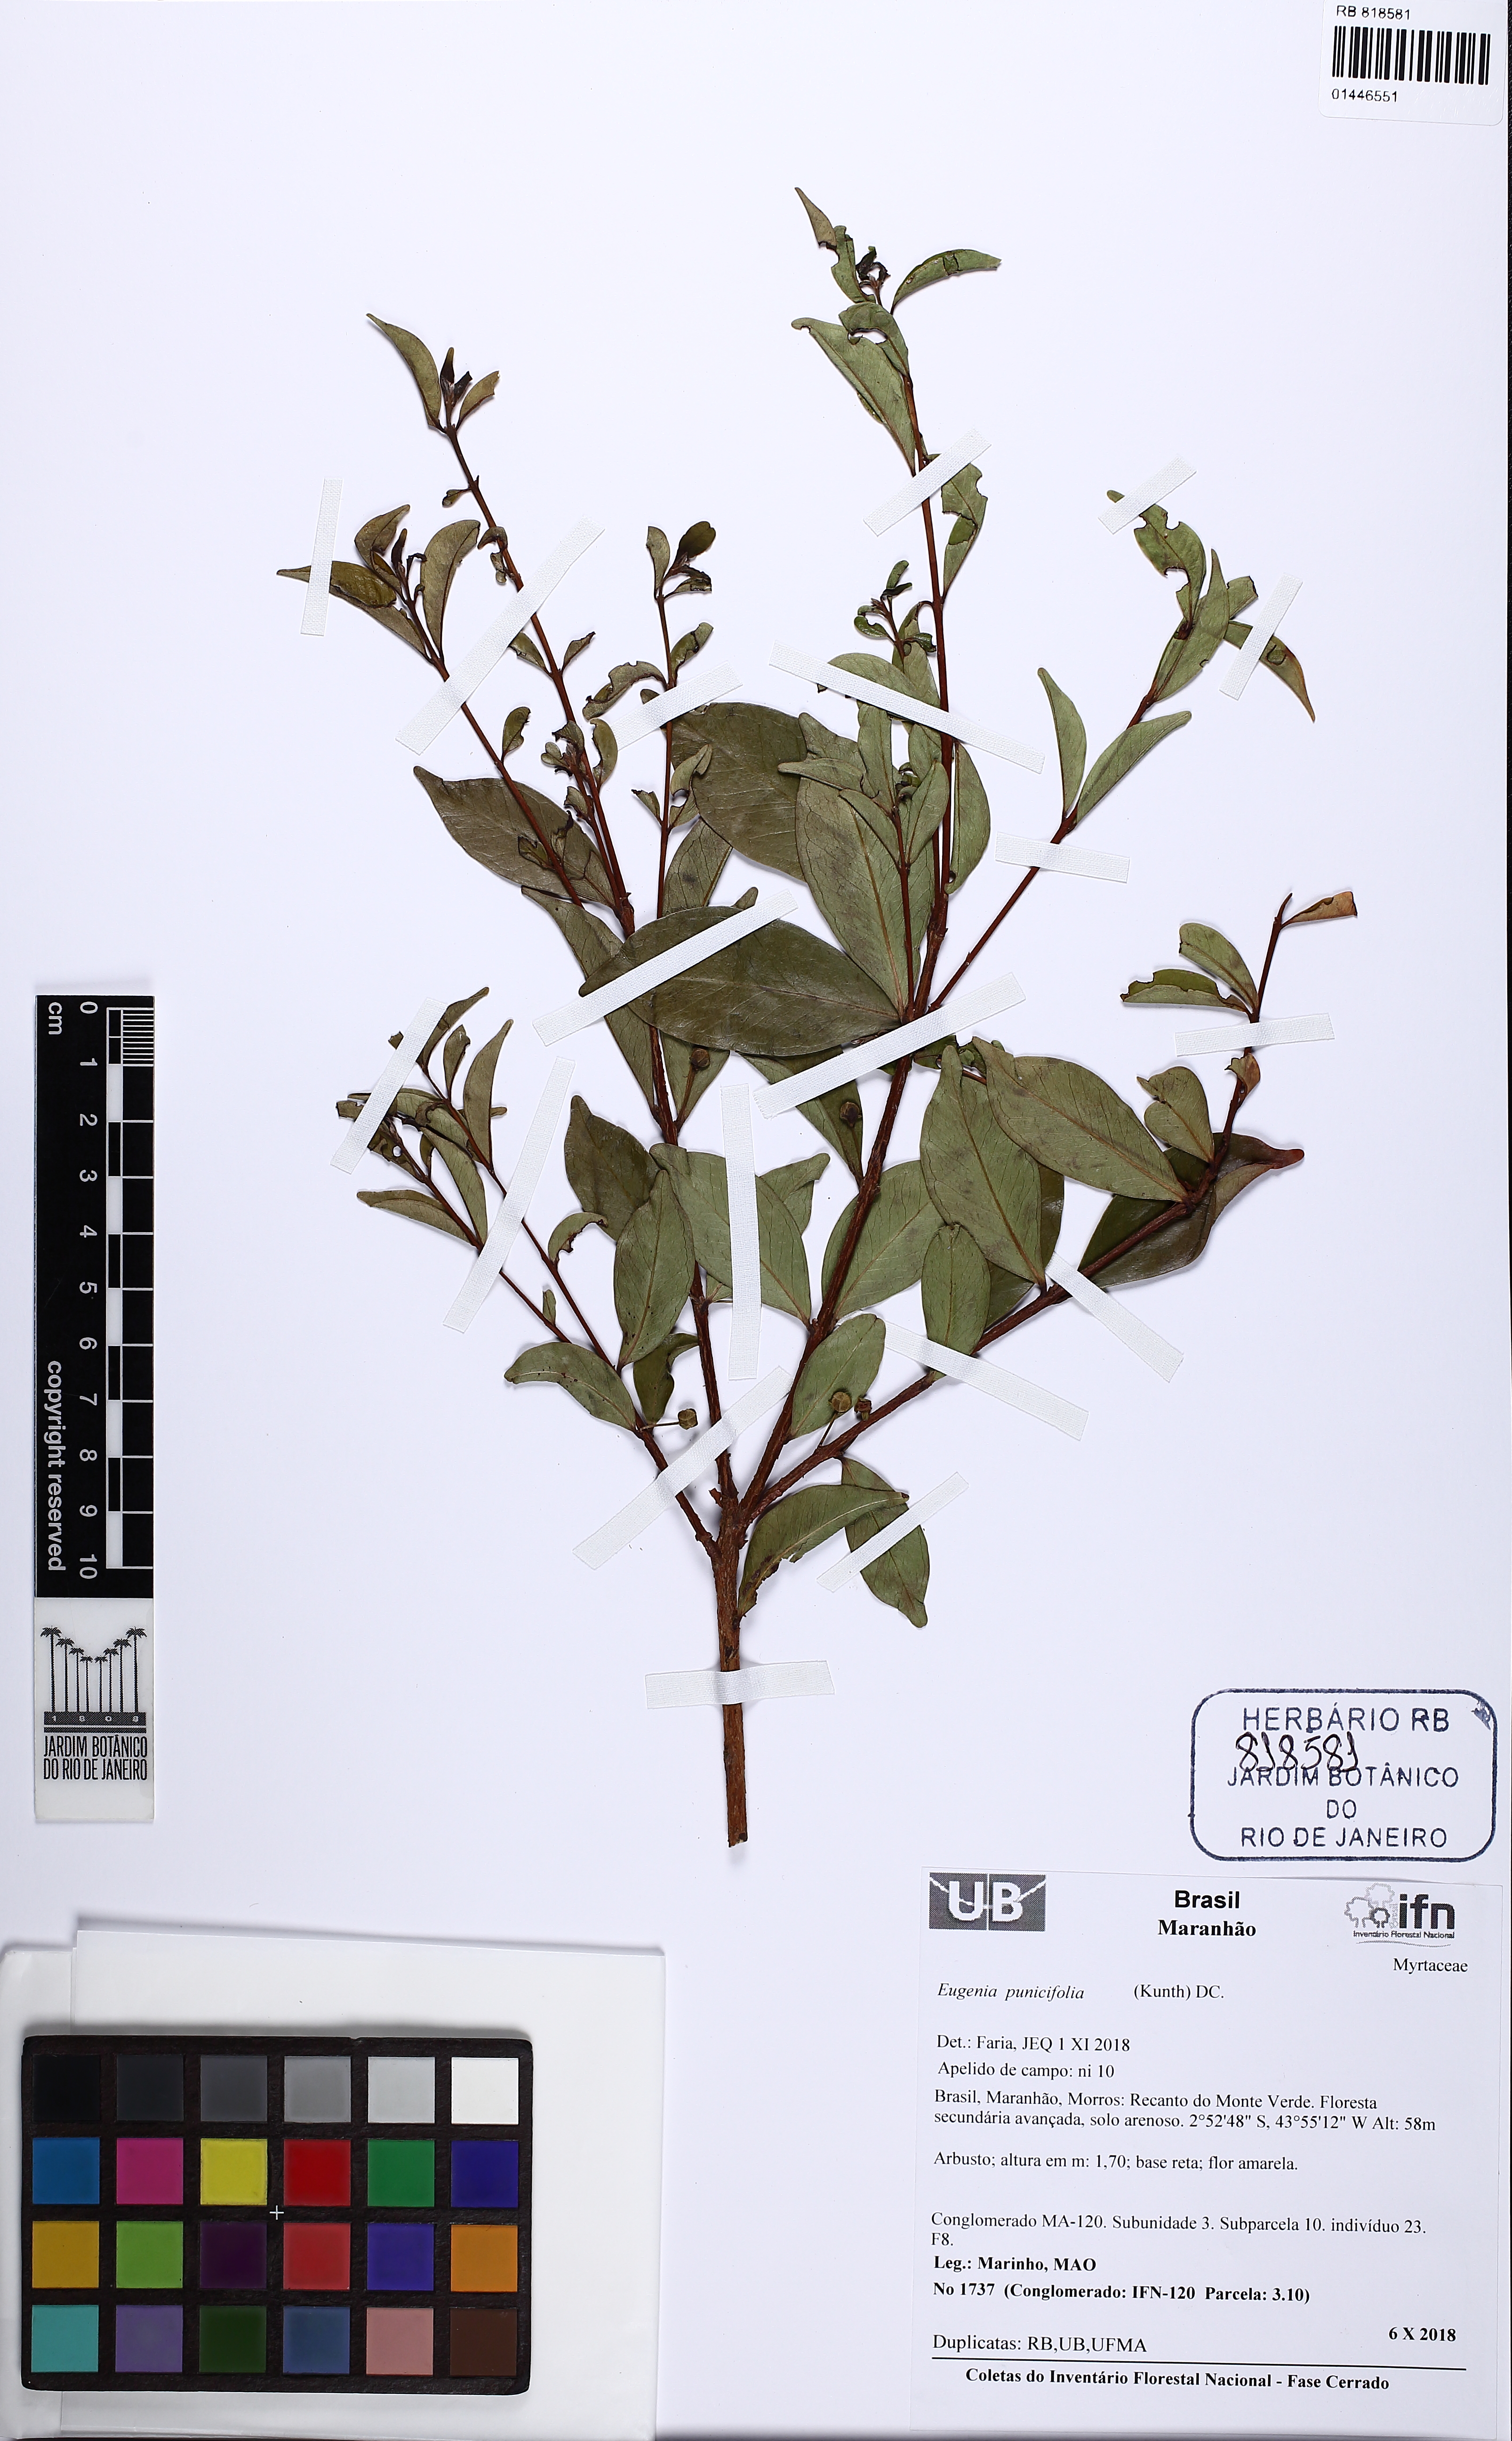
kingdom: Plantae
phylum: Tracheophyta
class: Magnoliopsida
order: Myrtales
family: Myrtaceae
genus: Eugenia
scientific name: Eugenia punicifolia
